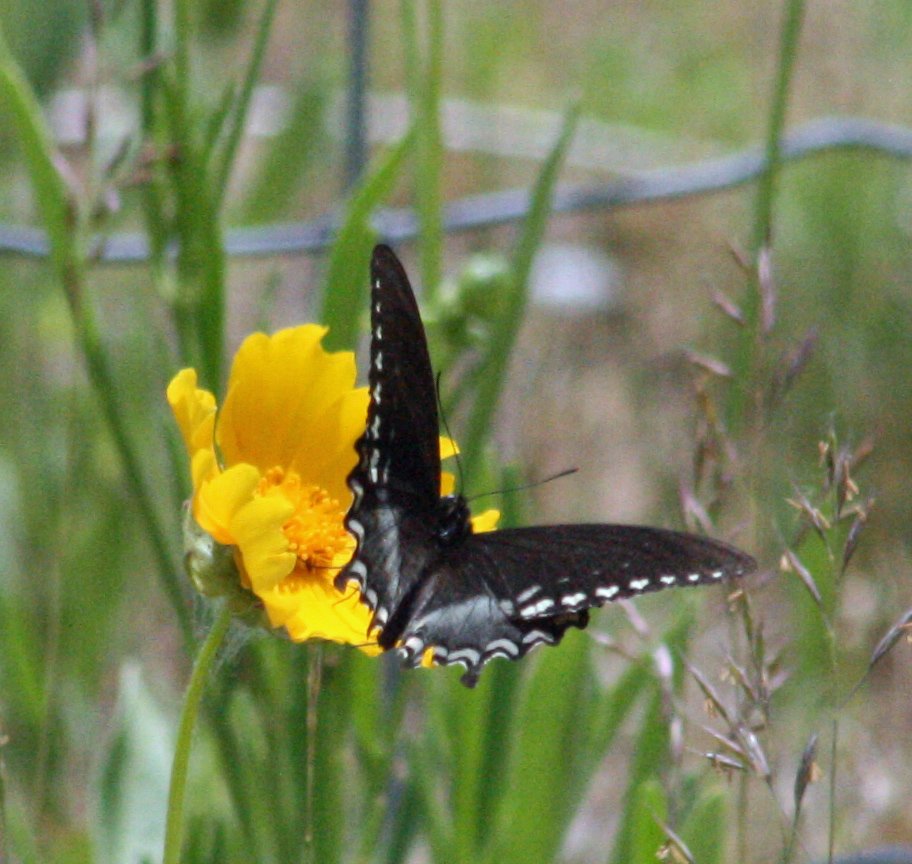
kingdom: Animalia
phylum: Arthropoda
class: Insecta
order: Lepidoptera
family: Papilionidae
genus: Pterourus
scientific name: Pterourus troilus
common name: Spicebush Swallowtail
